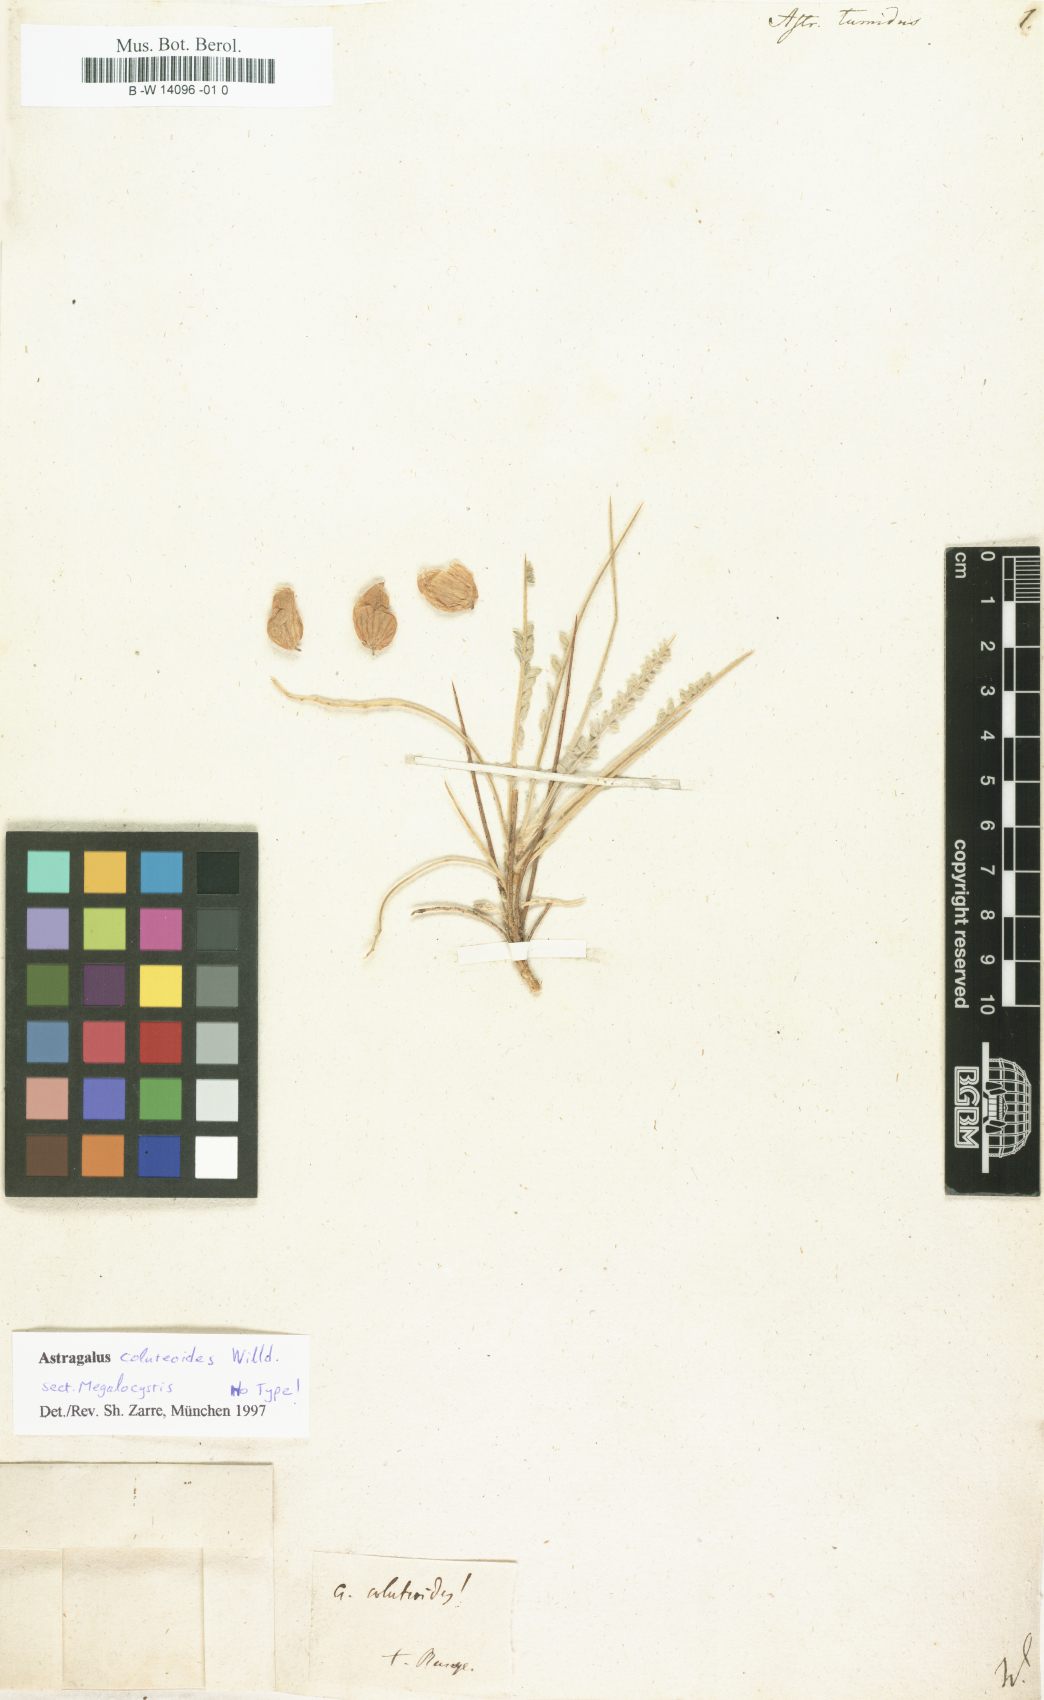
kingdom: Plantae
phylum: Tracheophyta
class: Magnoliopsida
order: Fabales
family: Fabaceae
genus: Astragalus
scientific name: Astragalus
